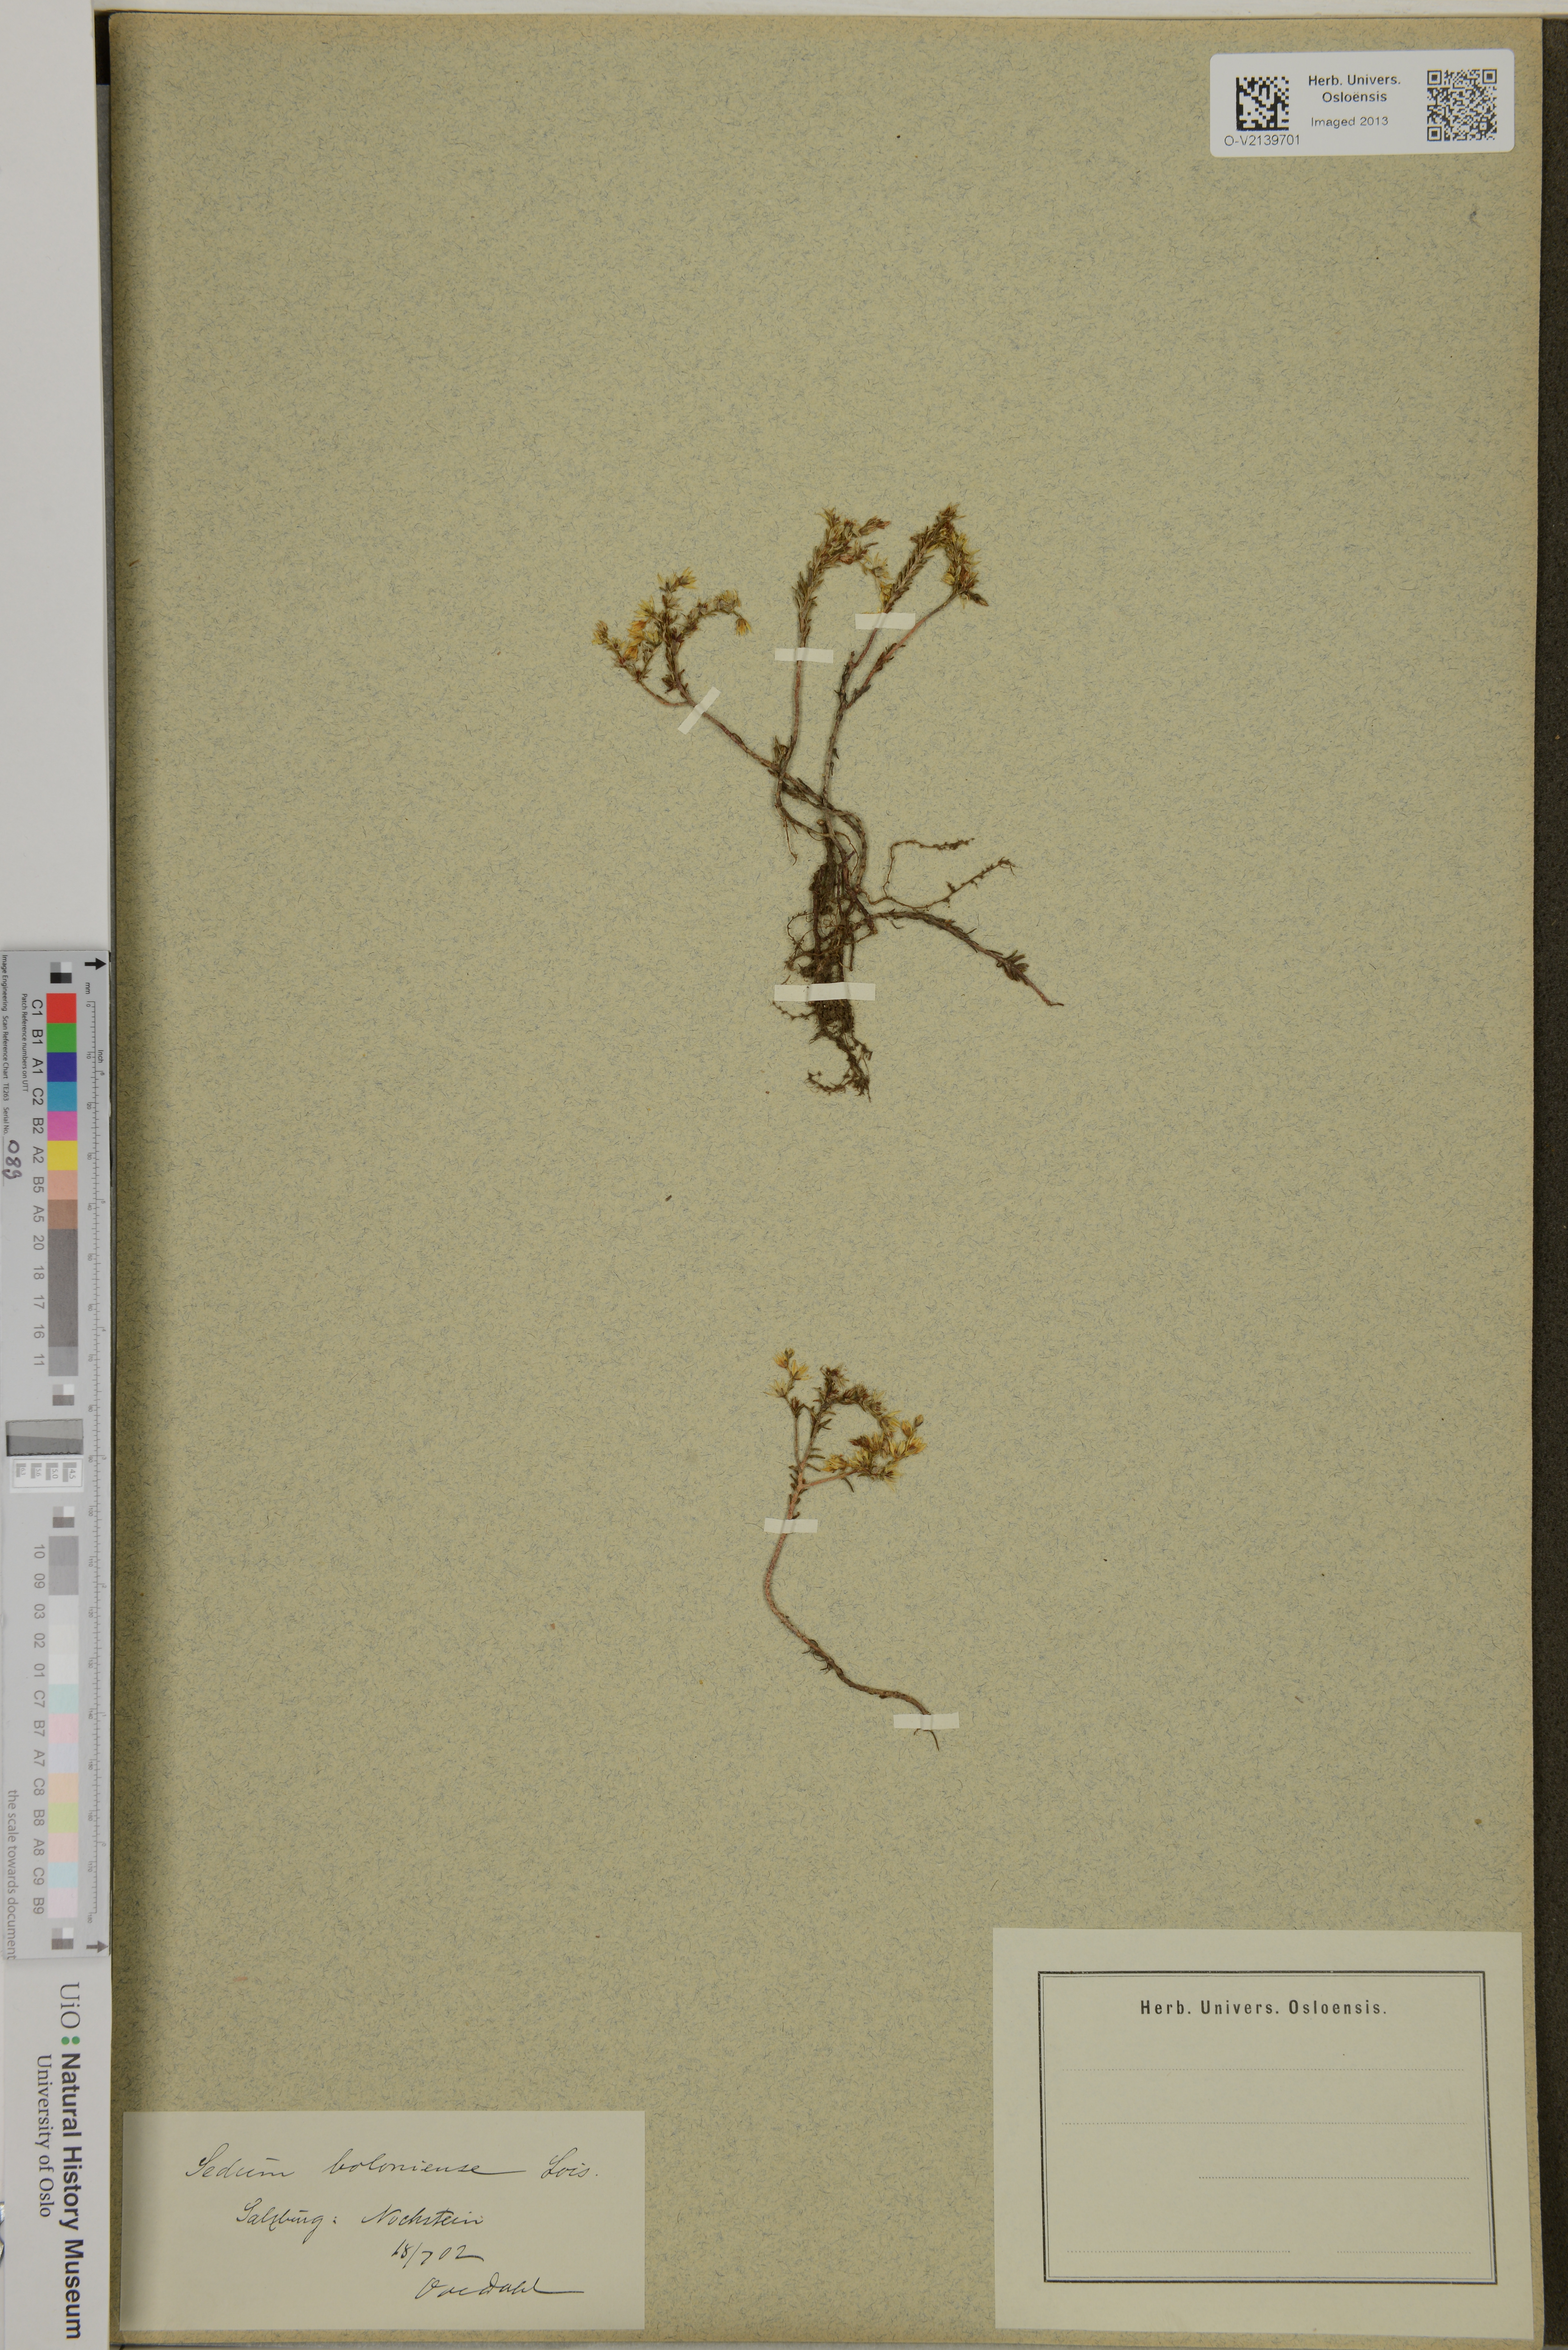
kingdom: Plantae
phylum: Tracheophyta
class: Magnoliopsida
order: Saxifragales
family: Crassulaceae
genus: Sedum
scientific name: Sedum sexangulare
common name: Tasteless stonecrop
